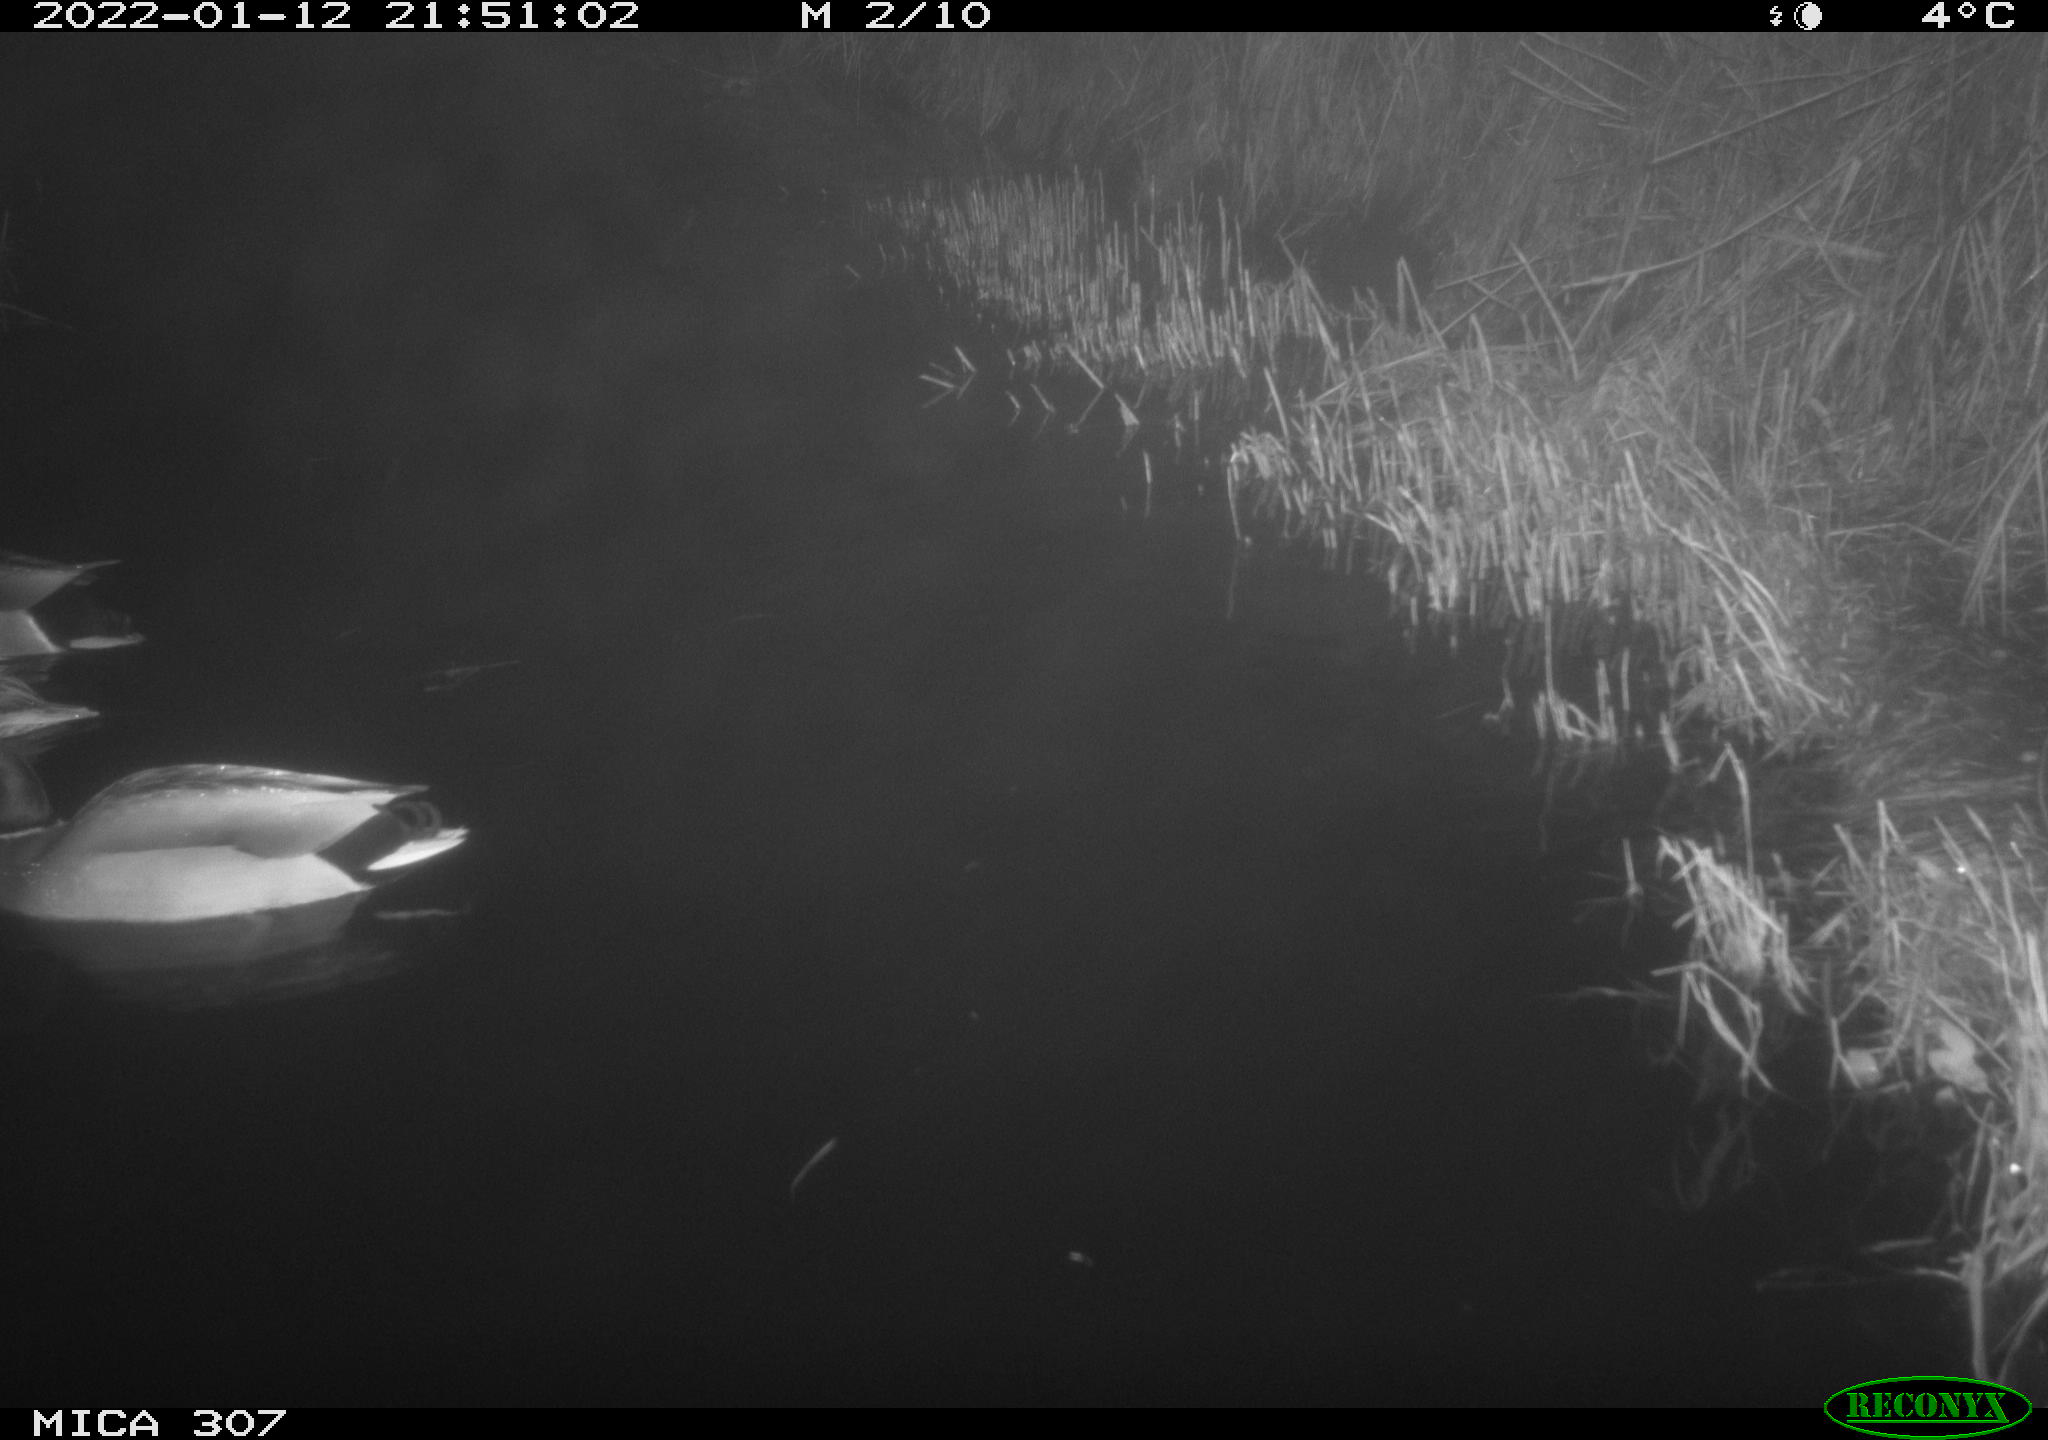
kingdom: Animalia
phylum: Chordata
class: Aves
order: Anseriformes
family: Anatidae
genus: Anas
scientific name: Anas
